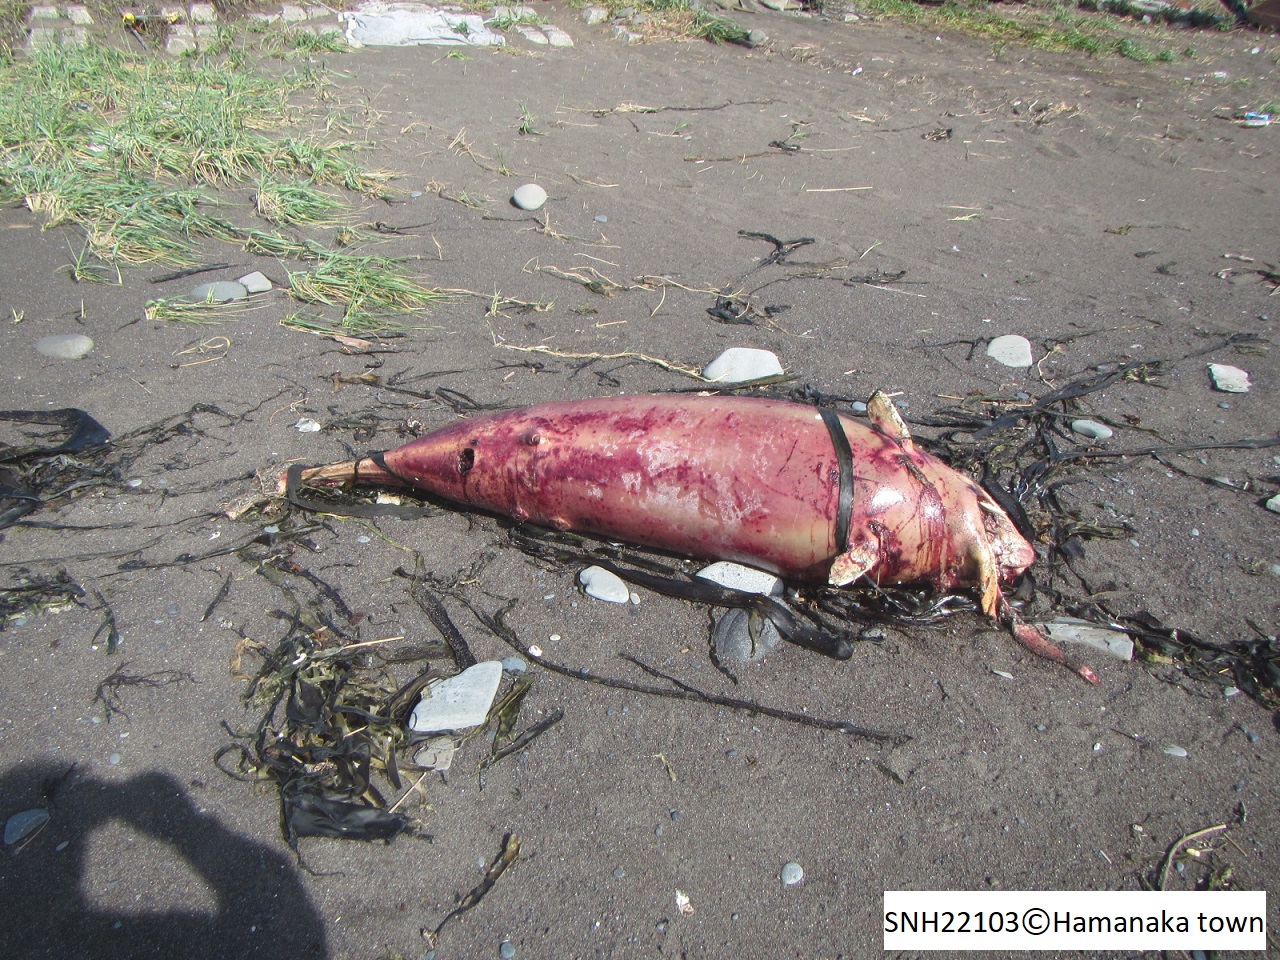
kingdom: Animalia
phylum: Chordata
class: Mammalia
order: Cetacea
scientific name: Cetacea
